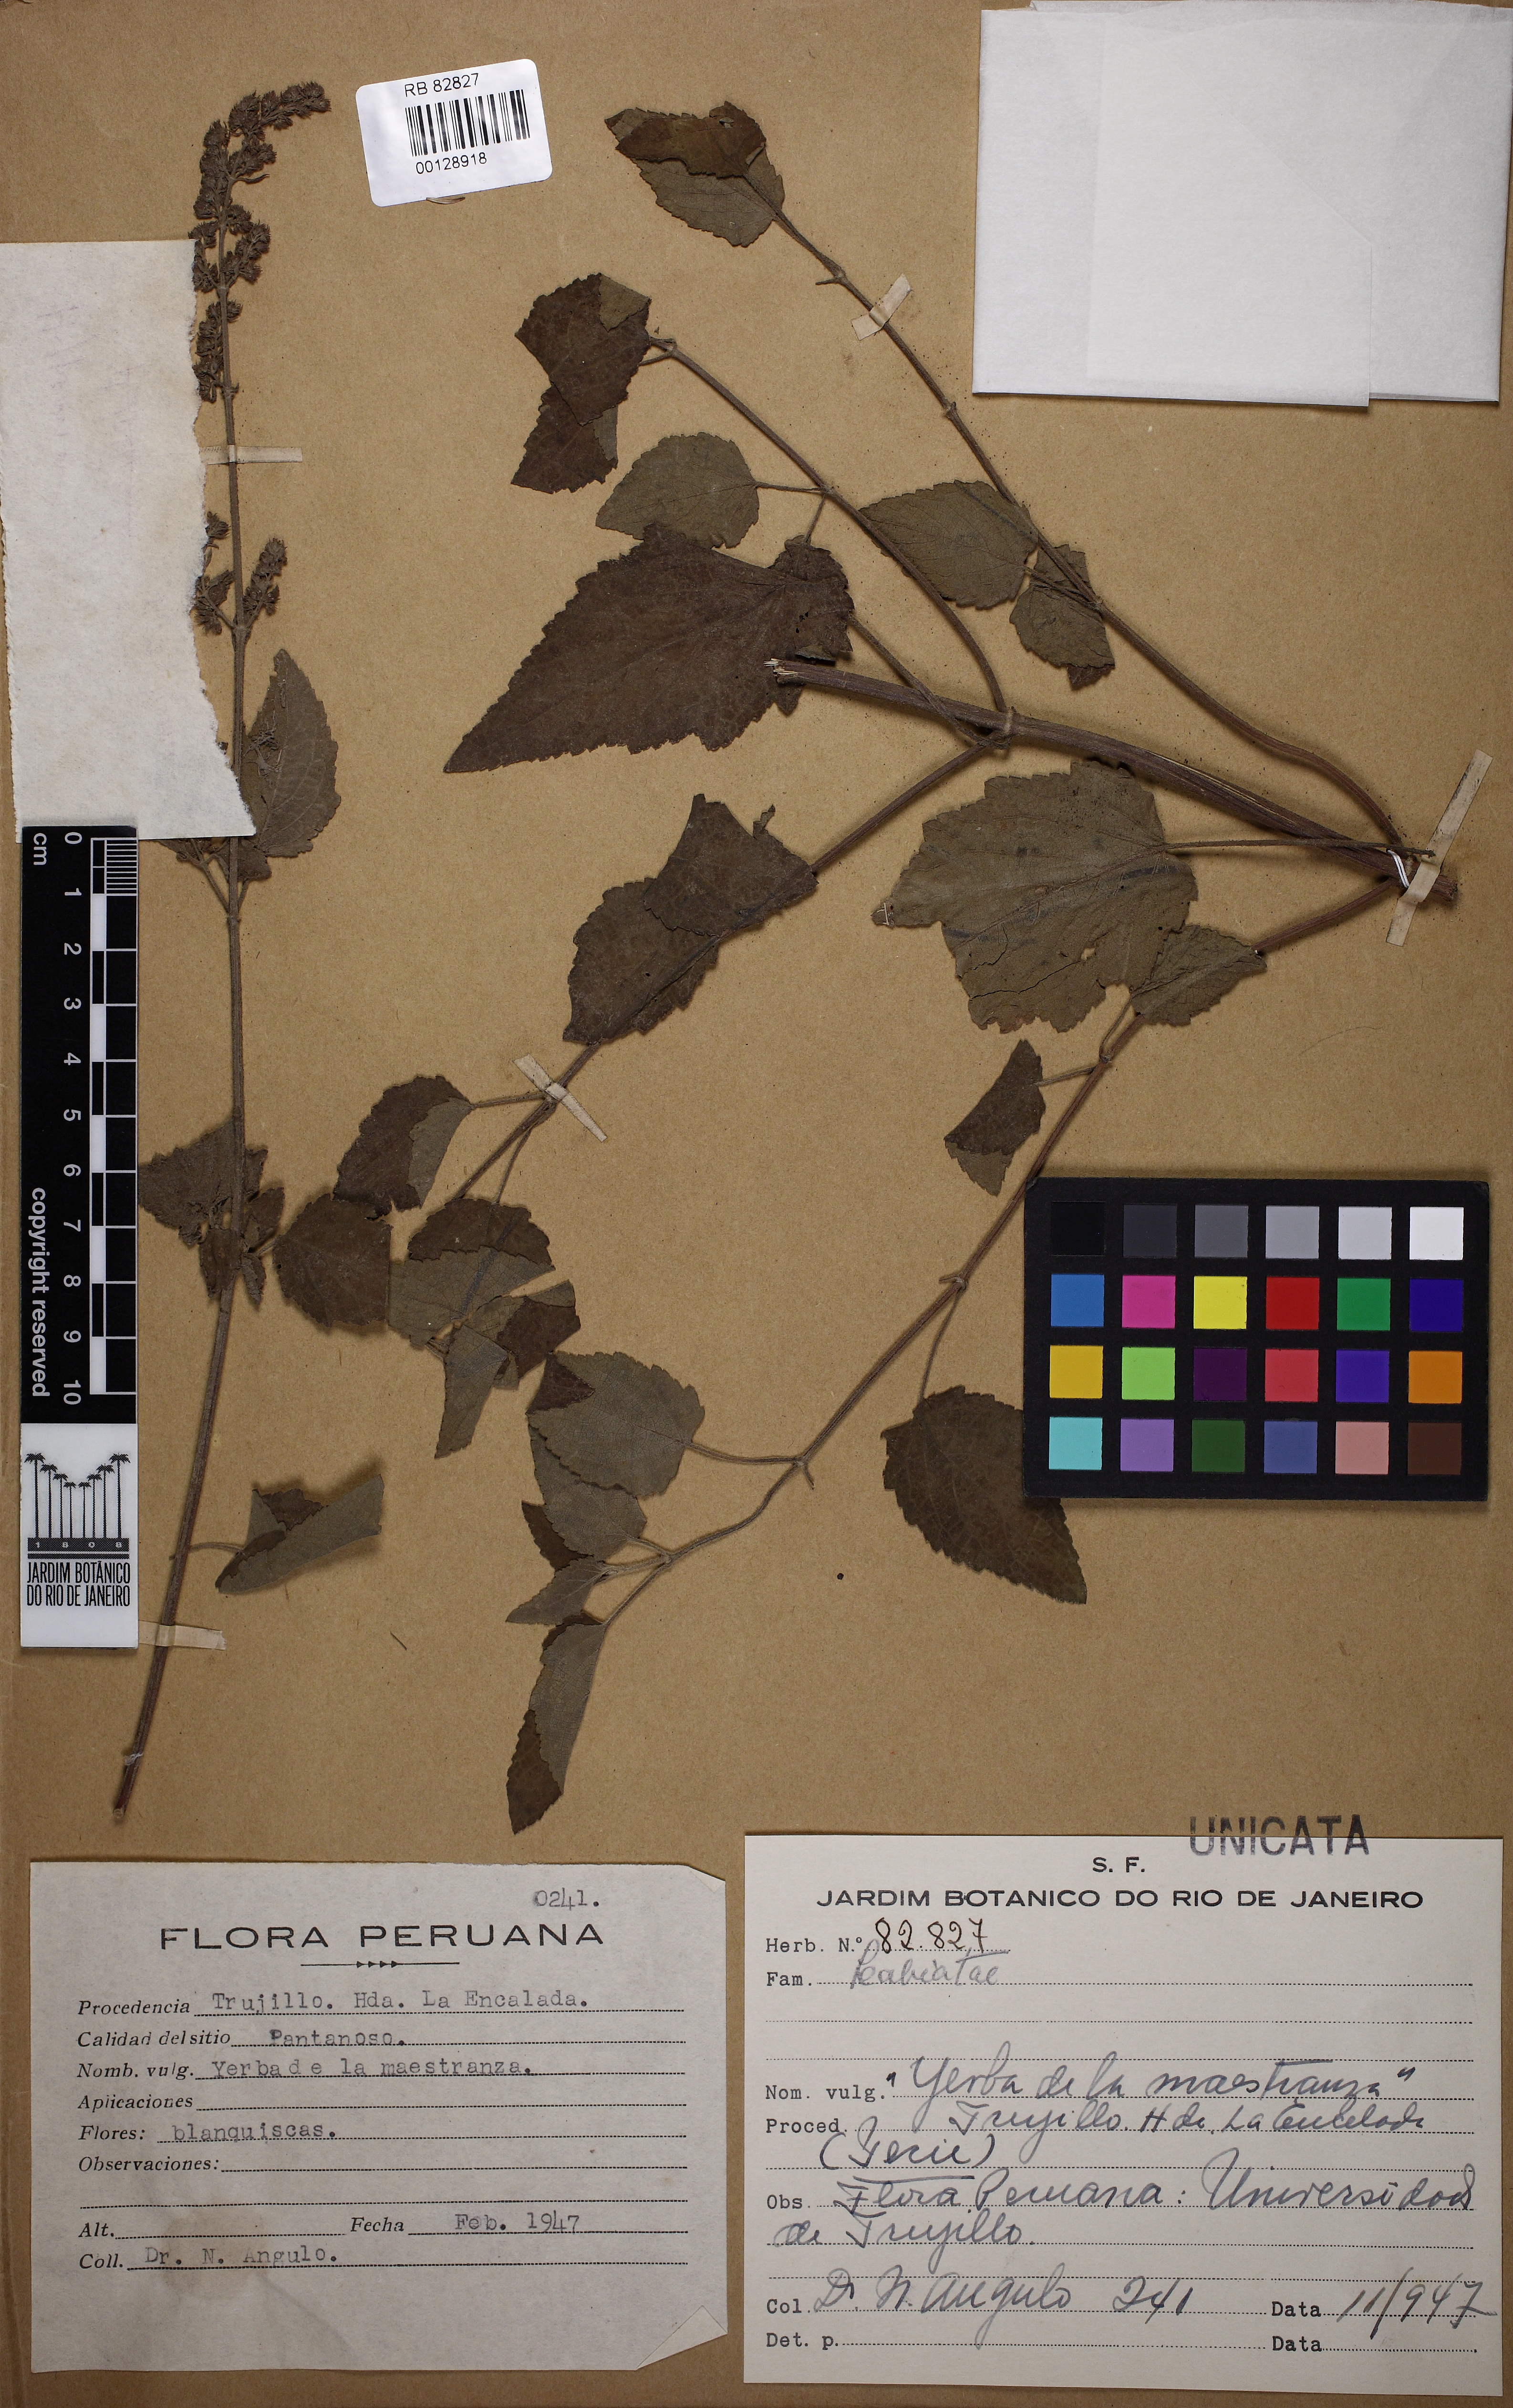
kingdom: Plantae
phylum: Tracheophyta
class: Magnoliopsida
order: Lamiales
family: Lamiaceae
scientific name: Lamiaceae
